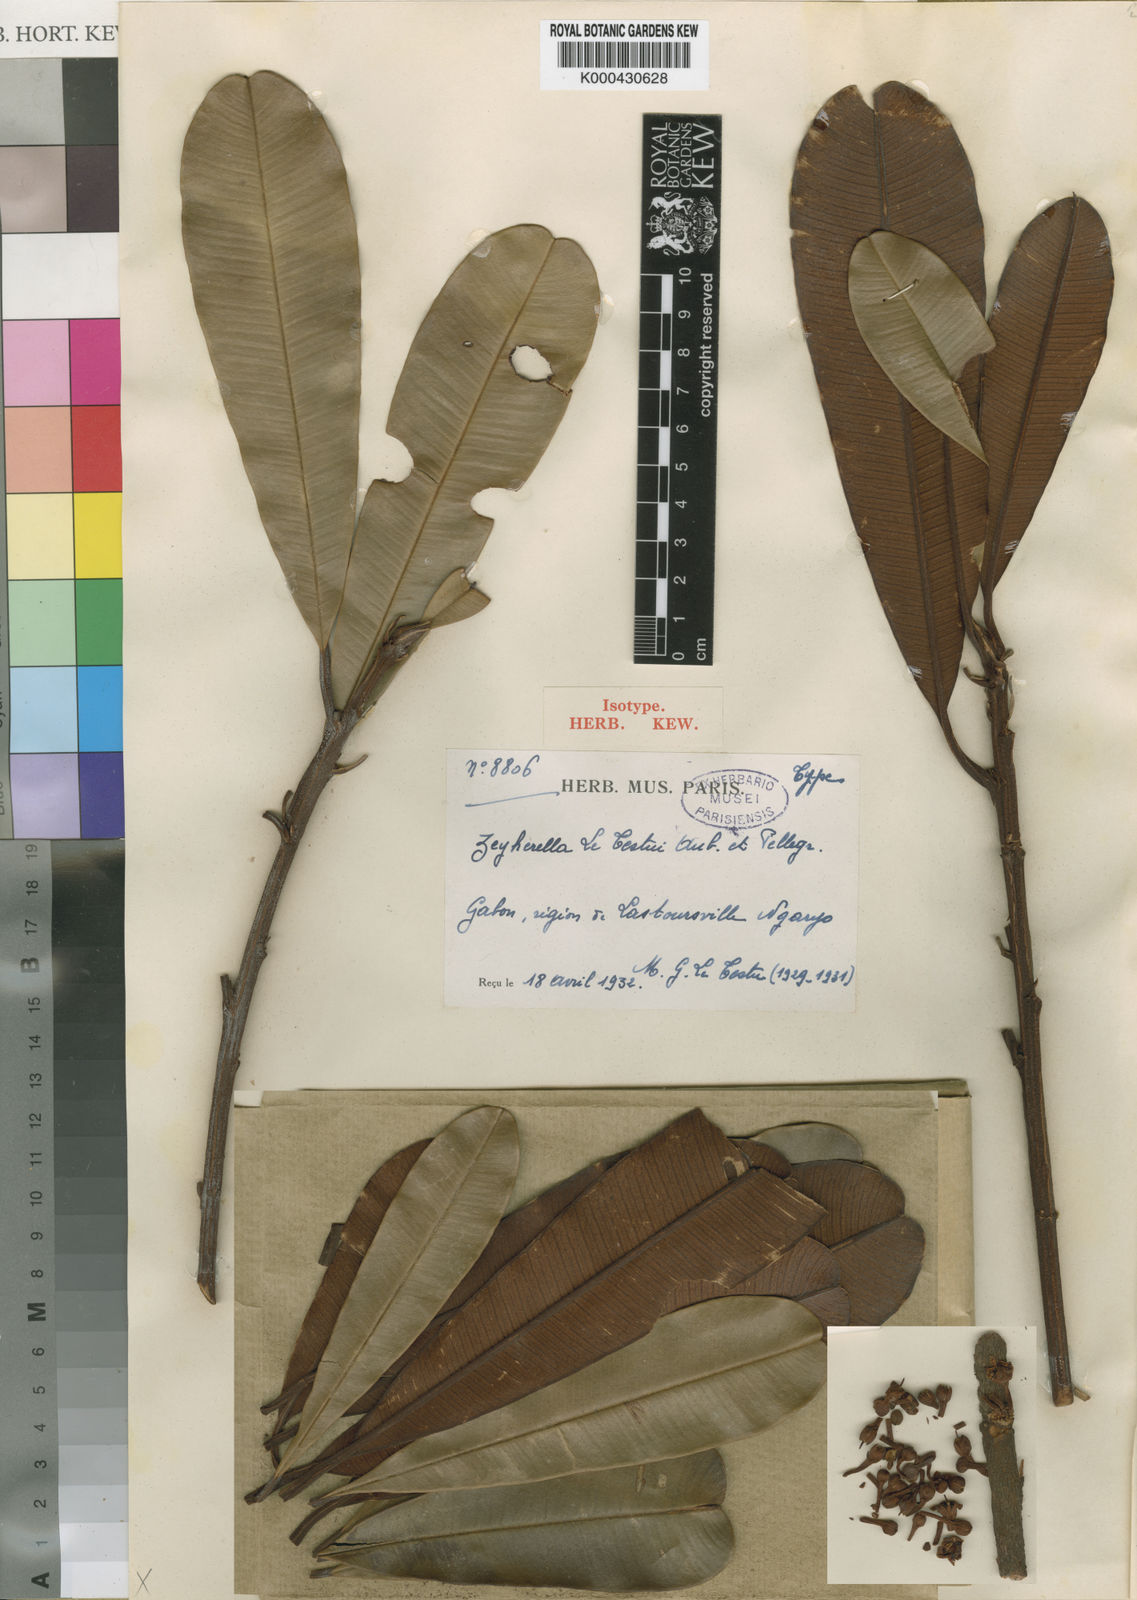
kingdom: Plantae
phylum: Tracheophyta
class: Magnoliopsida
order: Ericales
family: Sapotaceae
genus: Englerophytum
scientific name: Englerophytum
